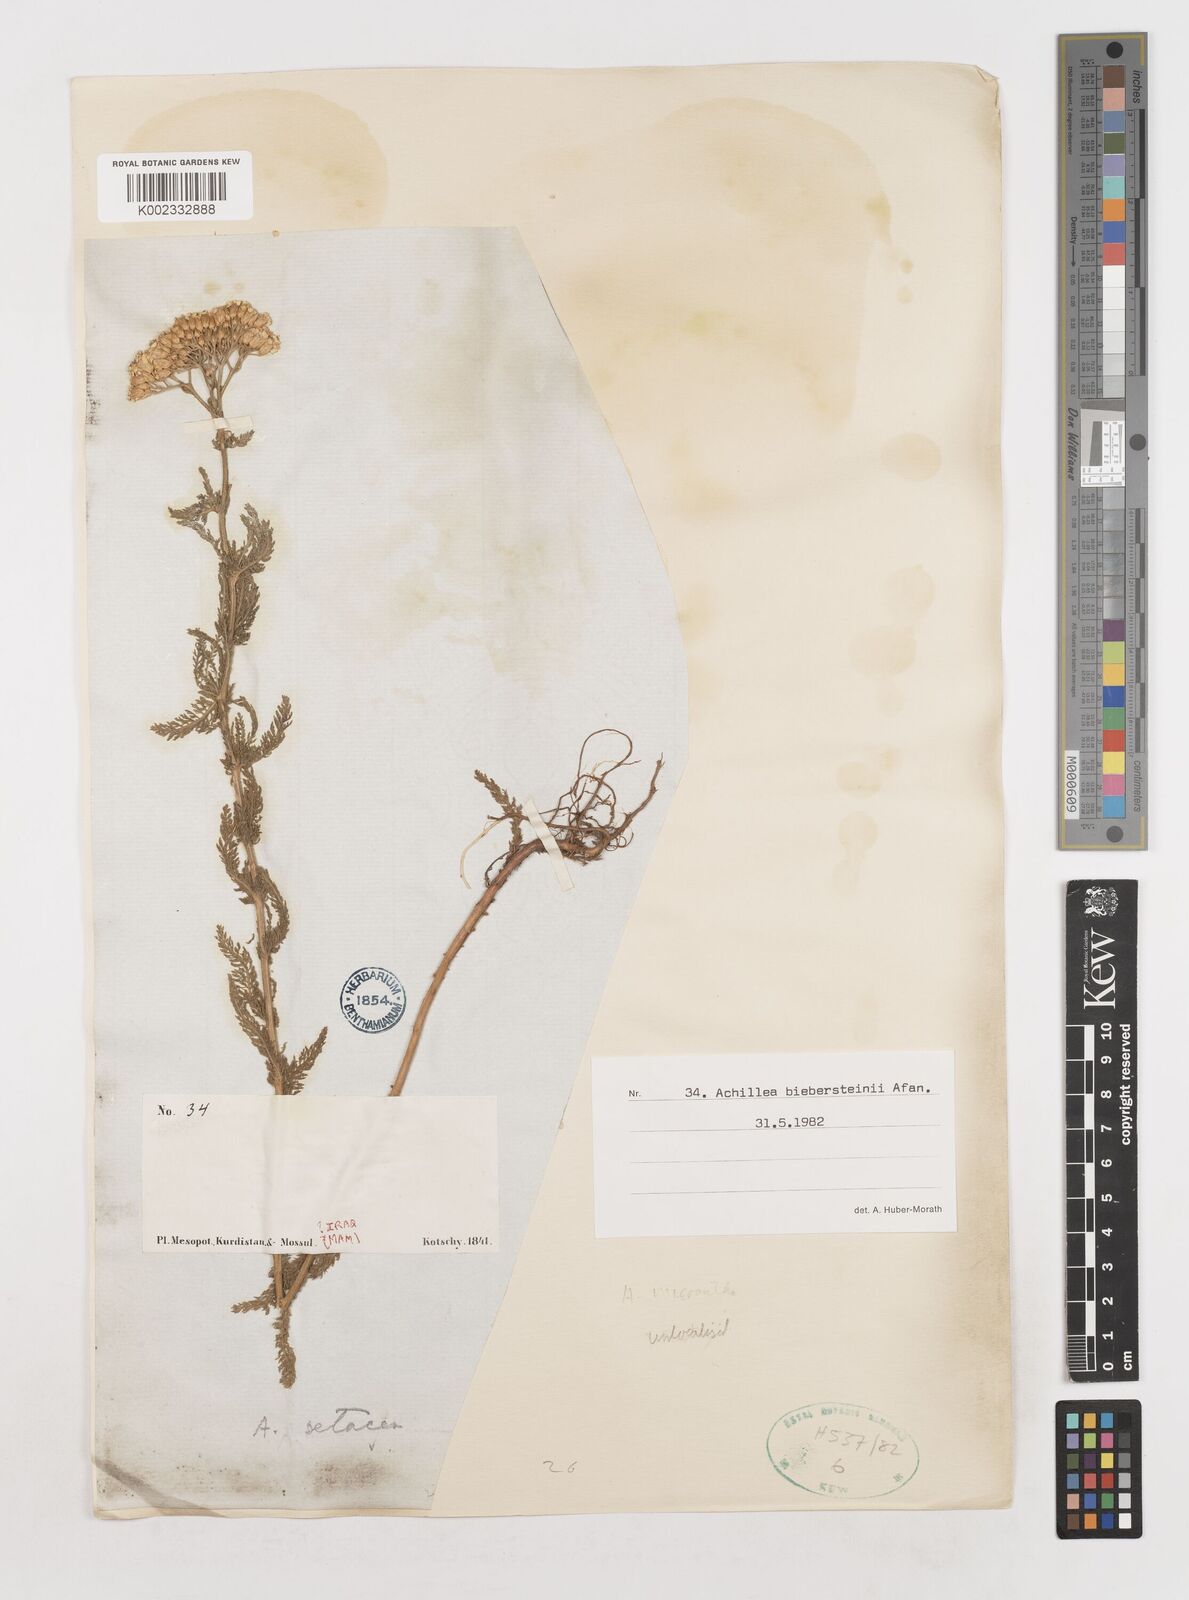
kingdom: Plantae
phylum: Tracheophyta
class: Magnoliopsida
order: Asterales
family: Asteraceae
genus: Achillea
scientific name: Achillea arabica
